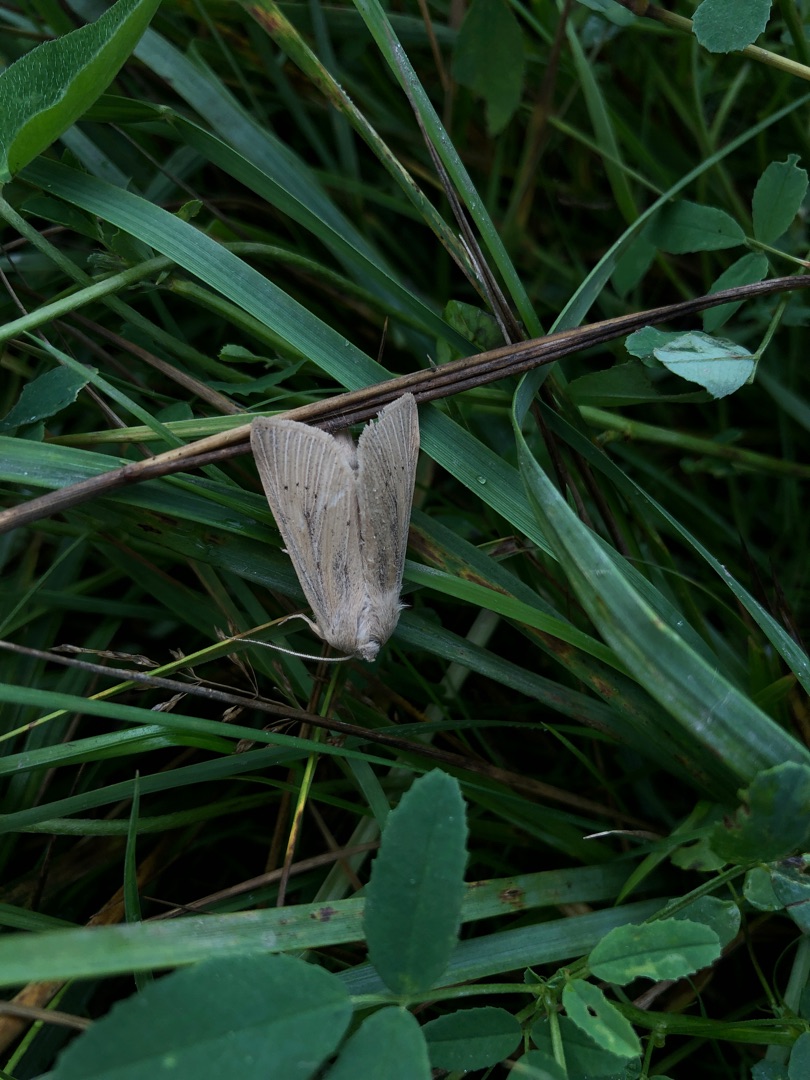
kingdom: Animalia
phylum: Arthropoda
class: Insecta
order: Lepidoptera
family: Noctuidae
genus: Rhizedra
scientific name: Rhizedra lutosa
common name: Stor sivugle
